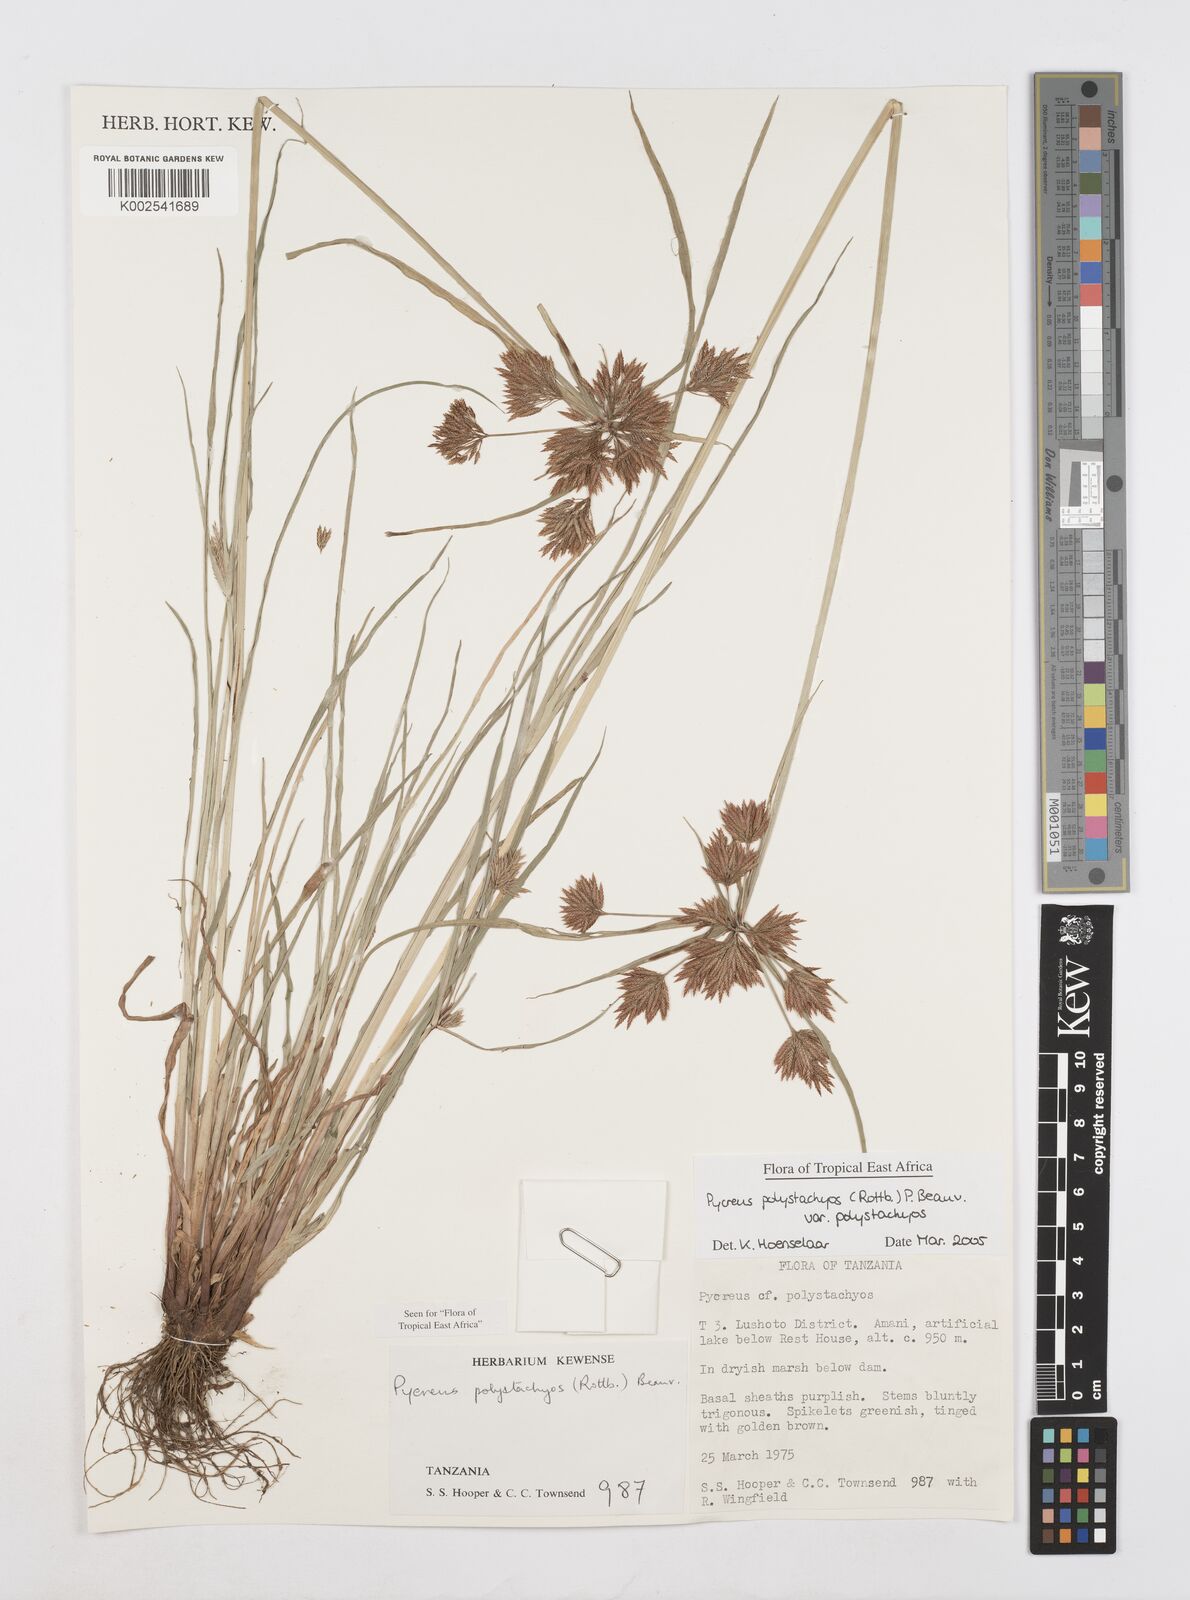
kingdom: Plantae
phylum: Tracheophyta
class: Liliopsida
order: Poales
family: Cyperaceae
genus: Cyperus
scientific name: Cyperus polystachyos
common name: Bunchy flat sedge
